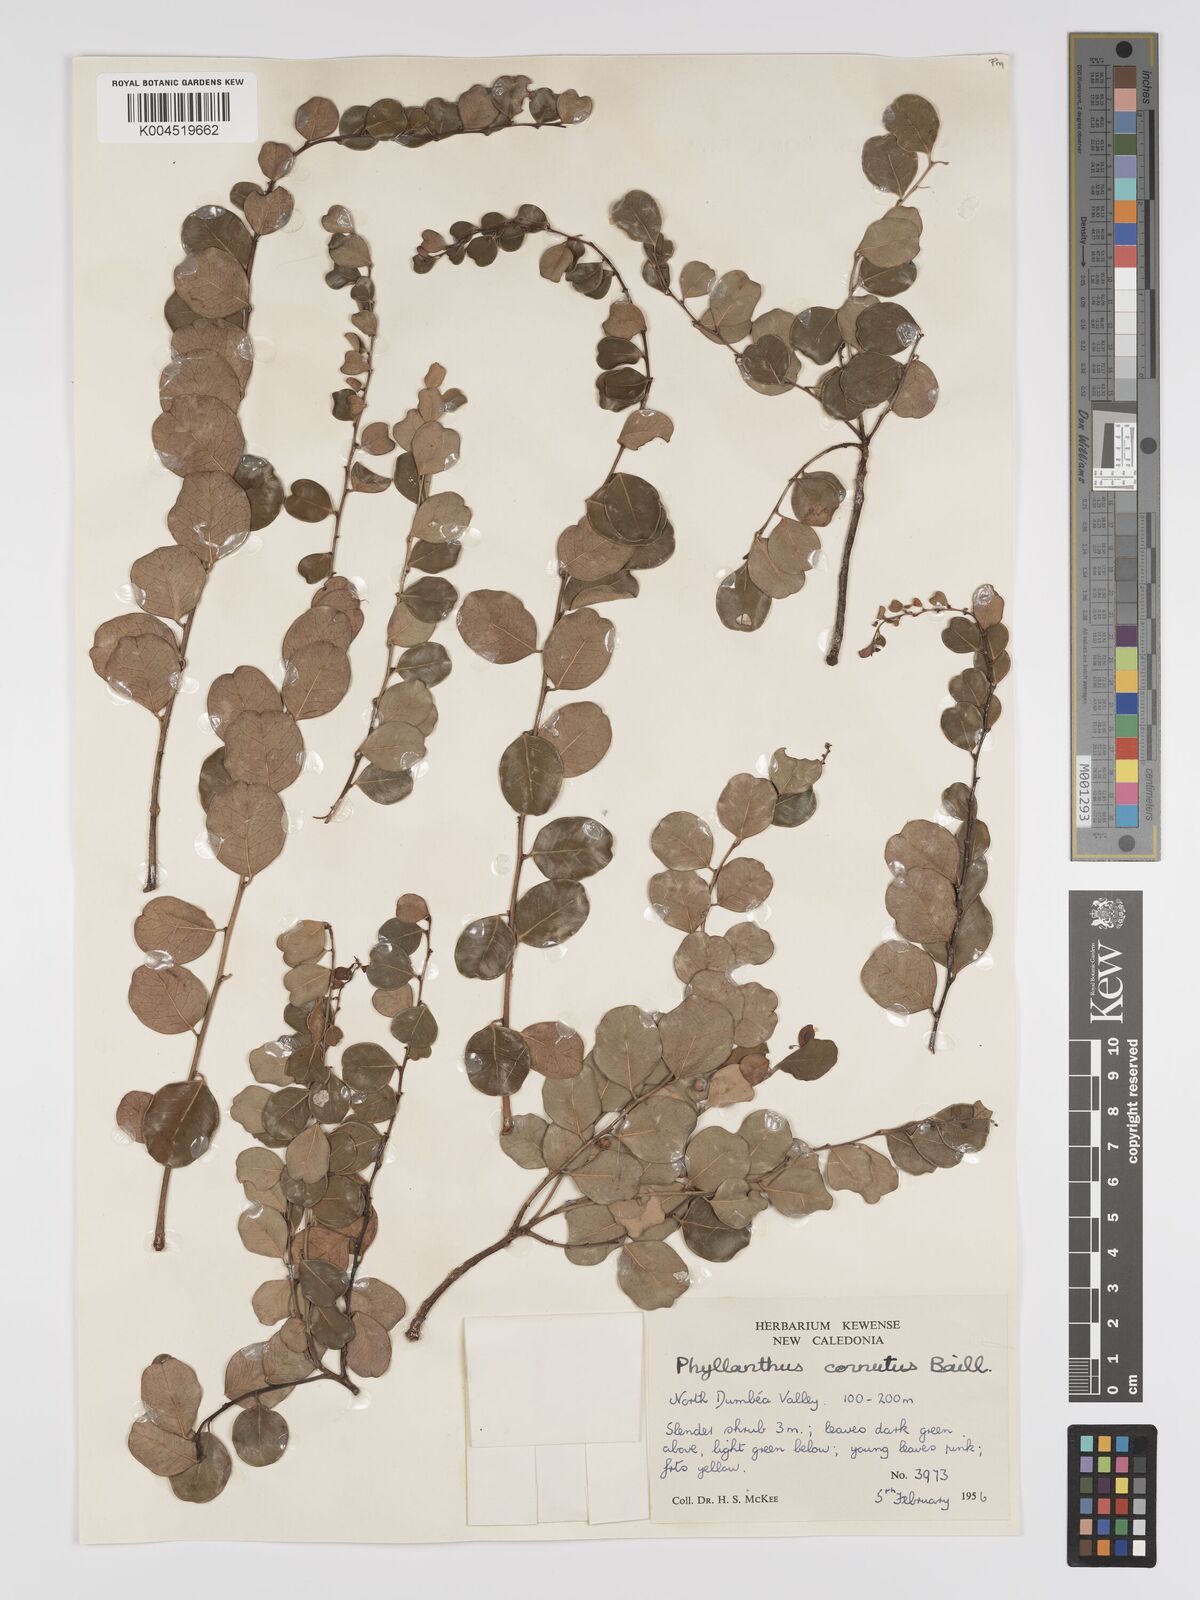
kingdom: Plantae
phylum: Tracheophyta
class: Magnoliopsida
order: Malpighiales
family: Phyllanthaceae
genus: Phyllanthus
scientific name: Phyllanthus cornutus
